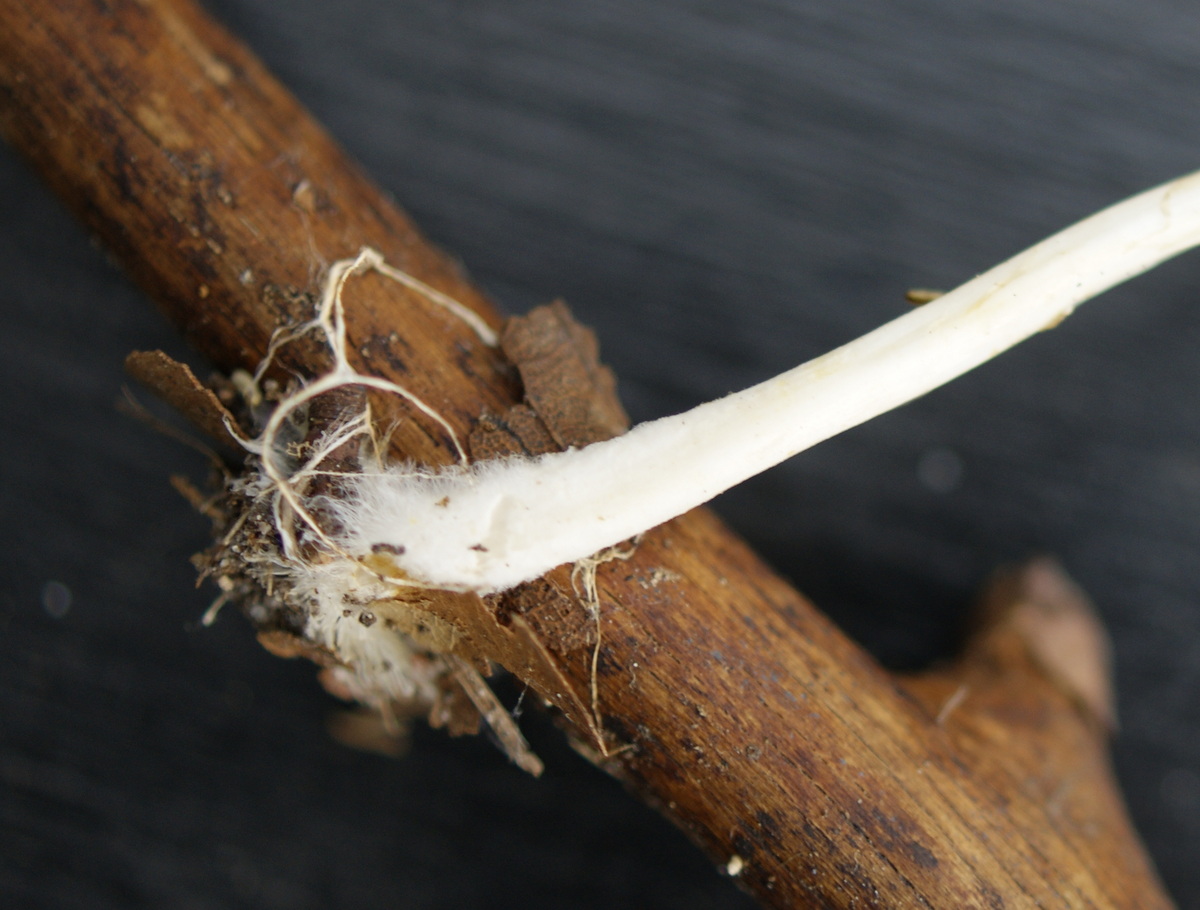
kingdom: Fungi
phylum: Basidiomycota
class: Agaricomycetes
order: Agaricales
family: Porotheleaceae
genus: Hydropodia
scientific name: Hydropodia subalpina
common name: vår-fnugfod
